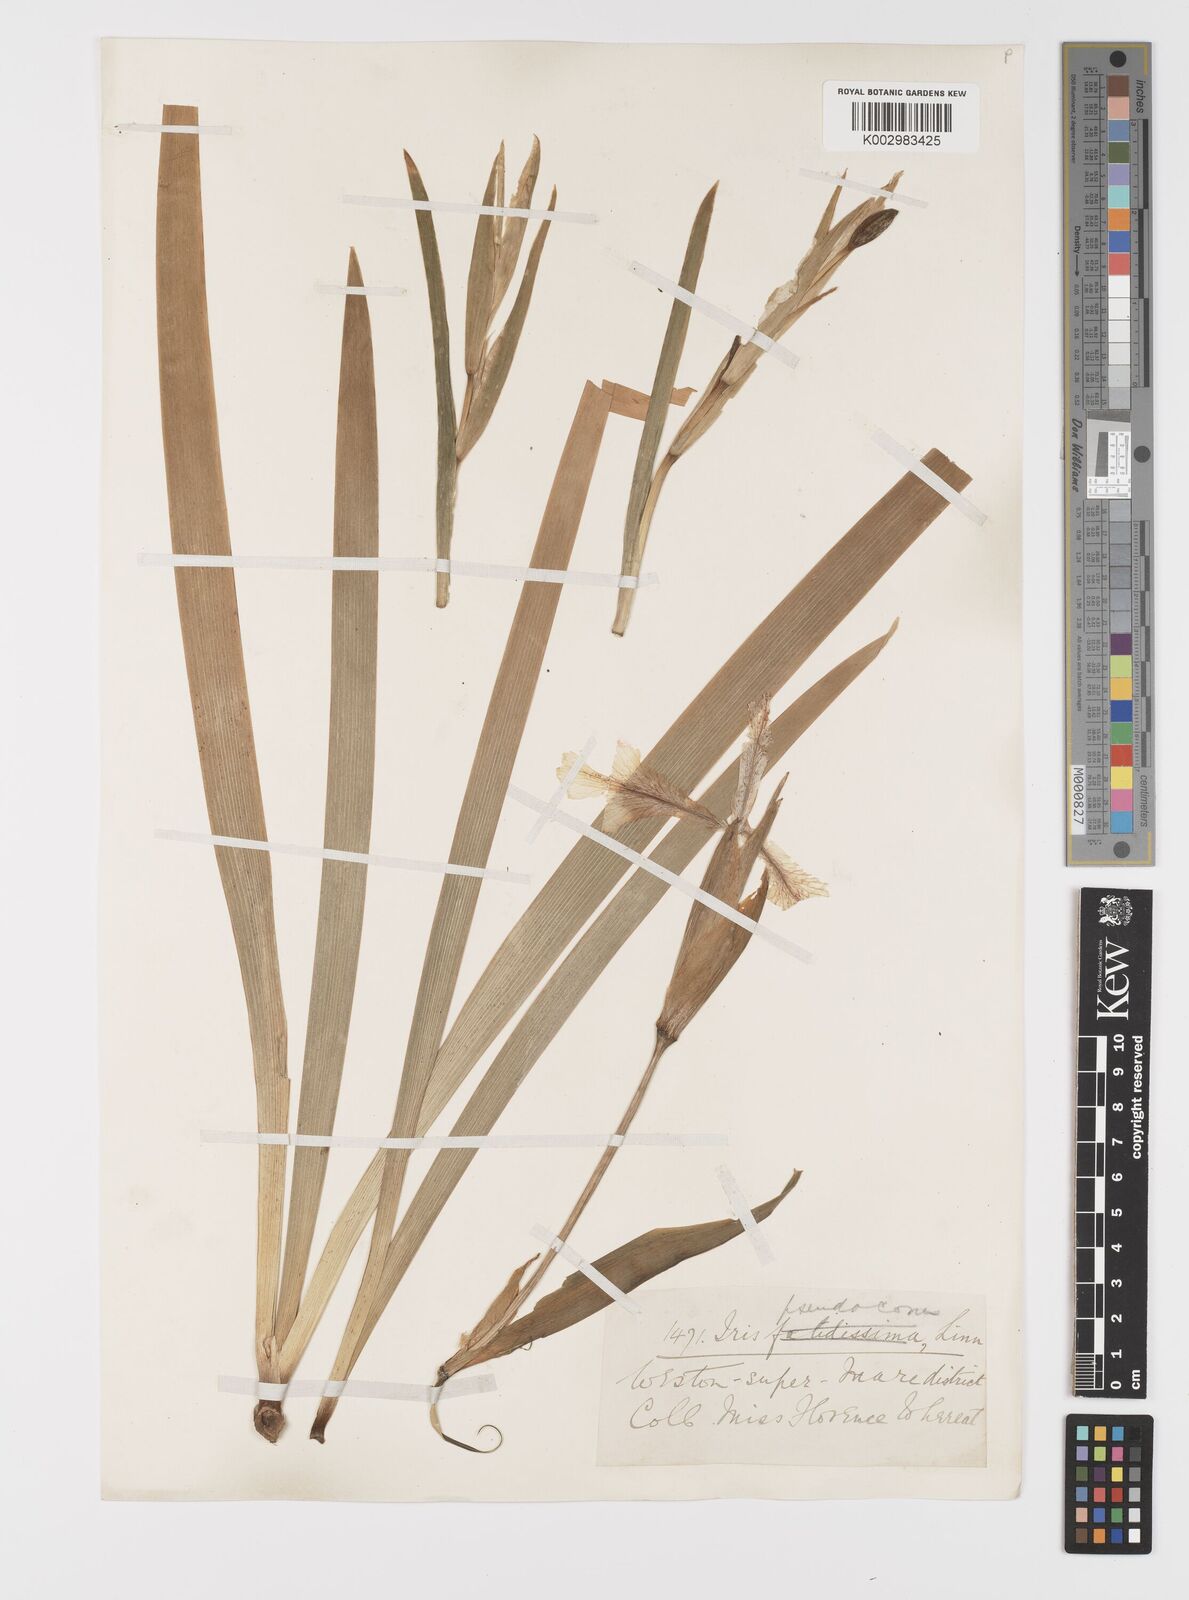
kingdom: Plantae
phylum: Tracheophyta
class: Liliopsida
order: Asparagales
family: Iridaceae
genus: Iris
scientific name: Iris pseudacorus
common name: Yellow flag
